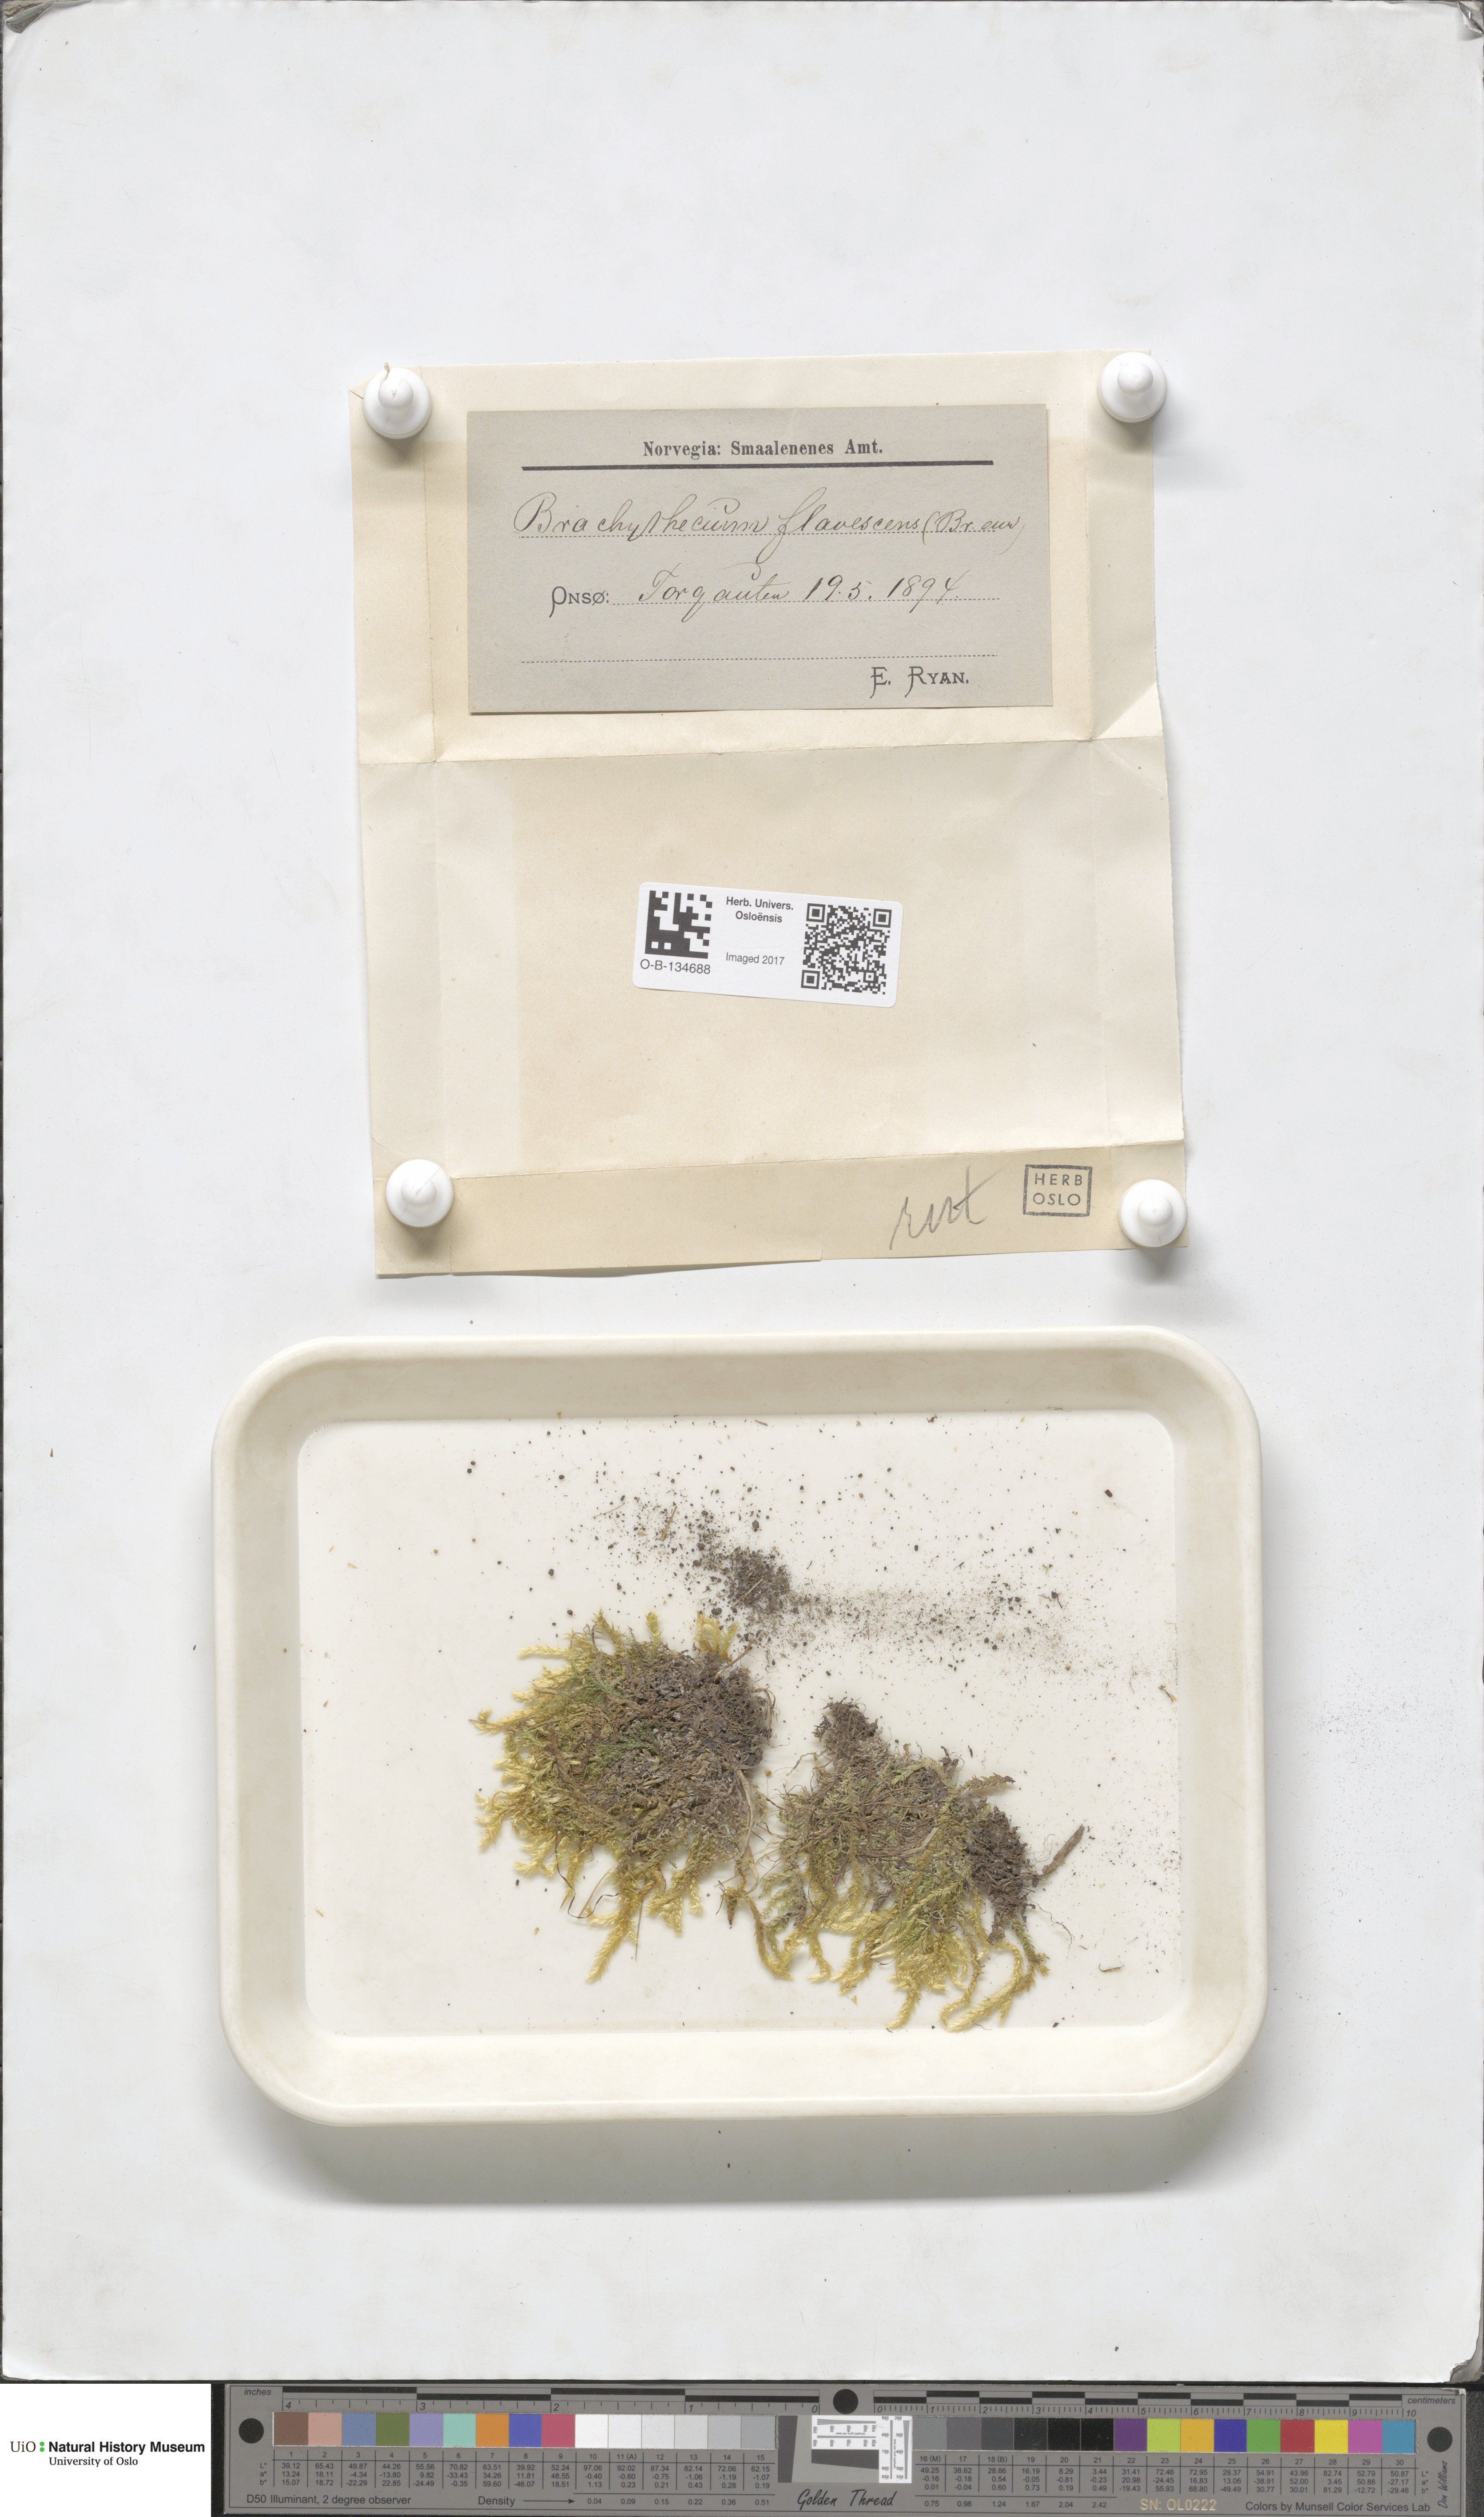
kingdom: Plantae
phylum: Bryophyta
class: Bryopsida
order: Hypnales
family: Brachytheciaceae
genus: Brachythecium
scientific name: Brachythecium rutabulum
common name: Rough-stalked feather-moss
